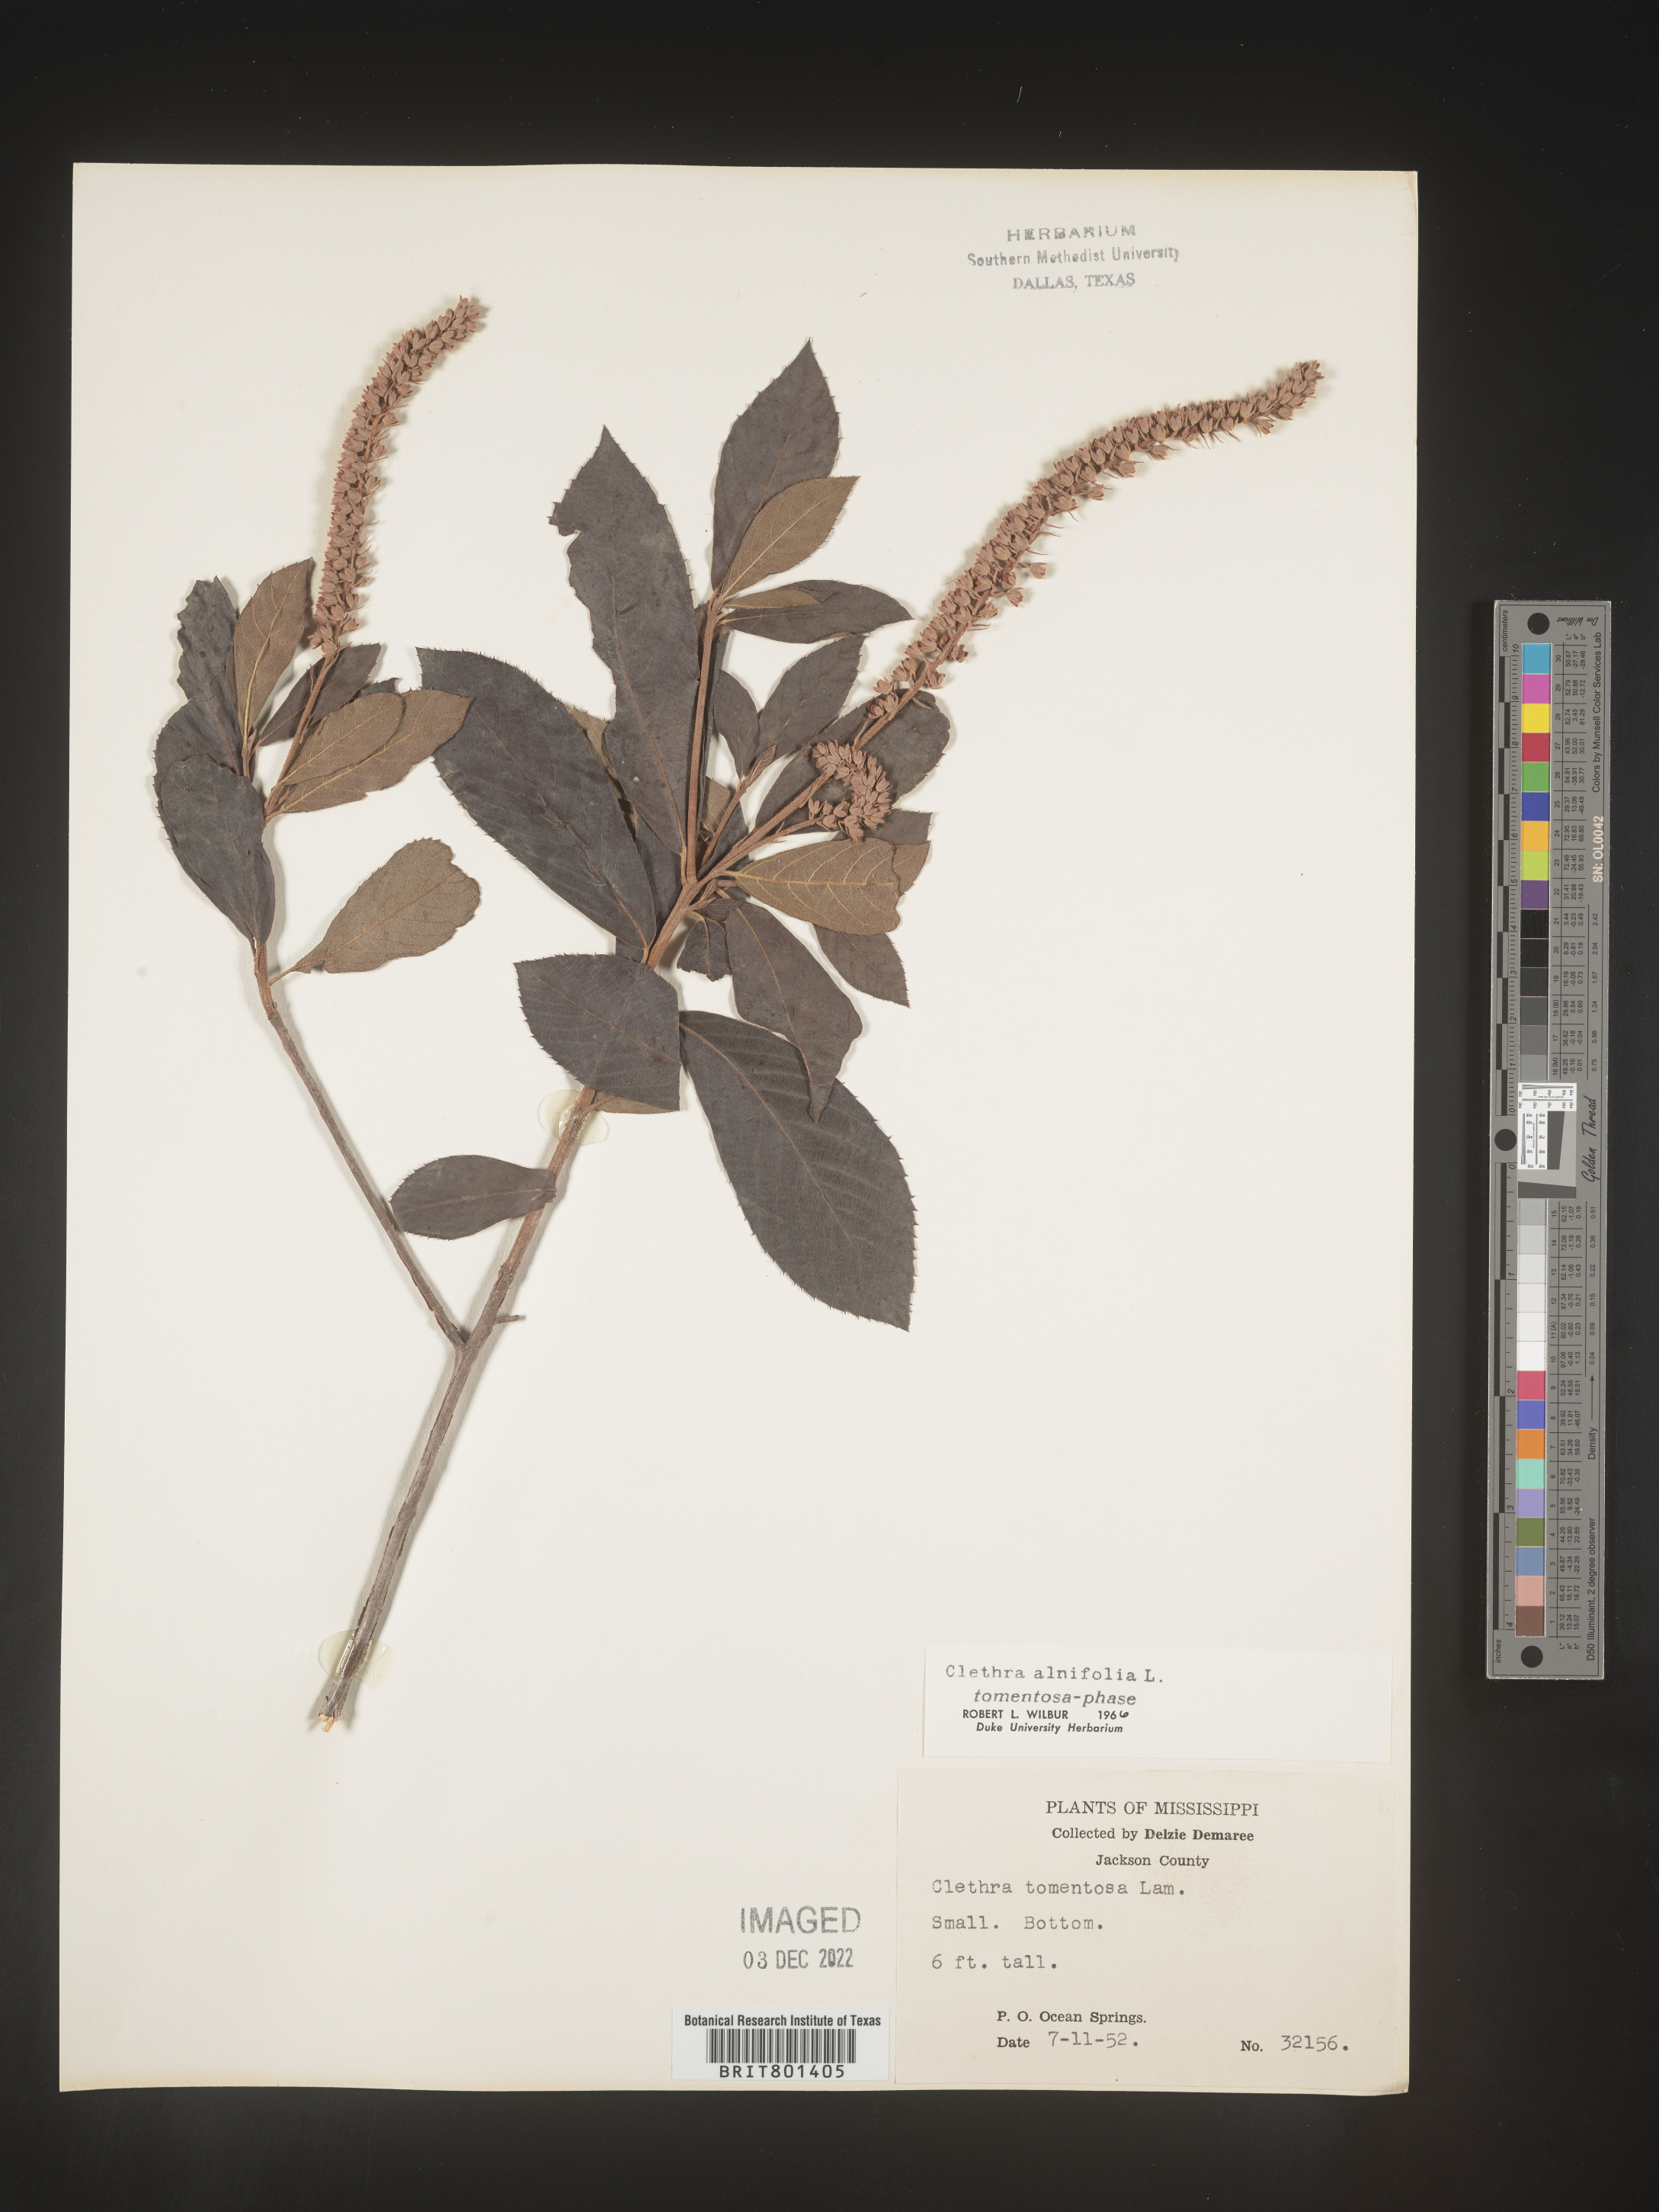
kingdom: Plantae
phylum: Tracheophyta
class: Magnoliopsida
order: Ericales
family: Clethraceae
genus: Clethra
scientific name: Clethra alnifolia
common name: Sweet pepperbush
